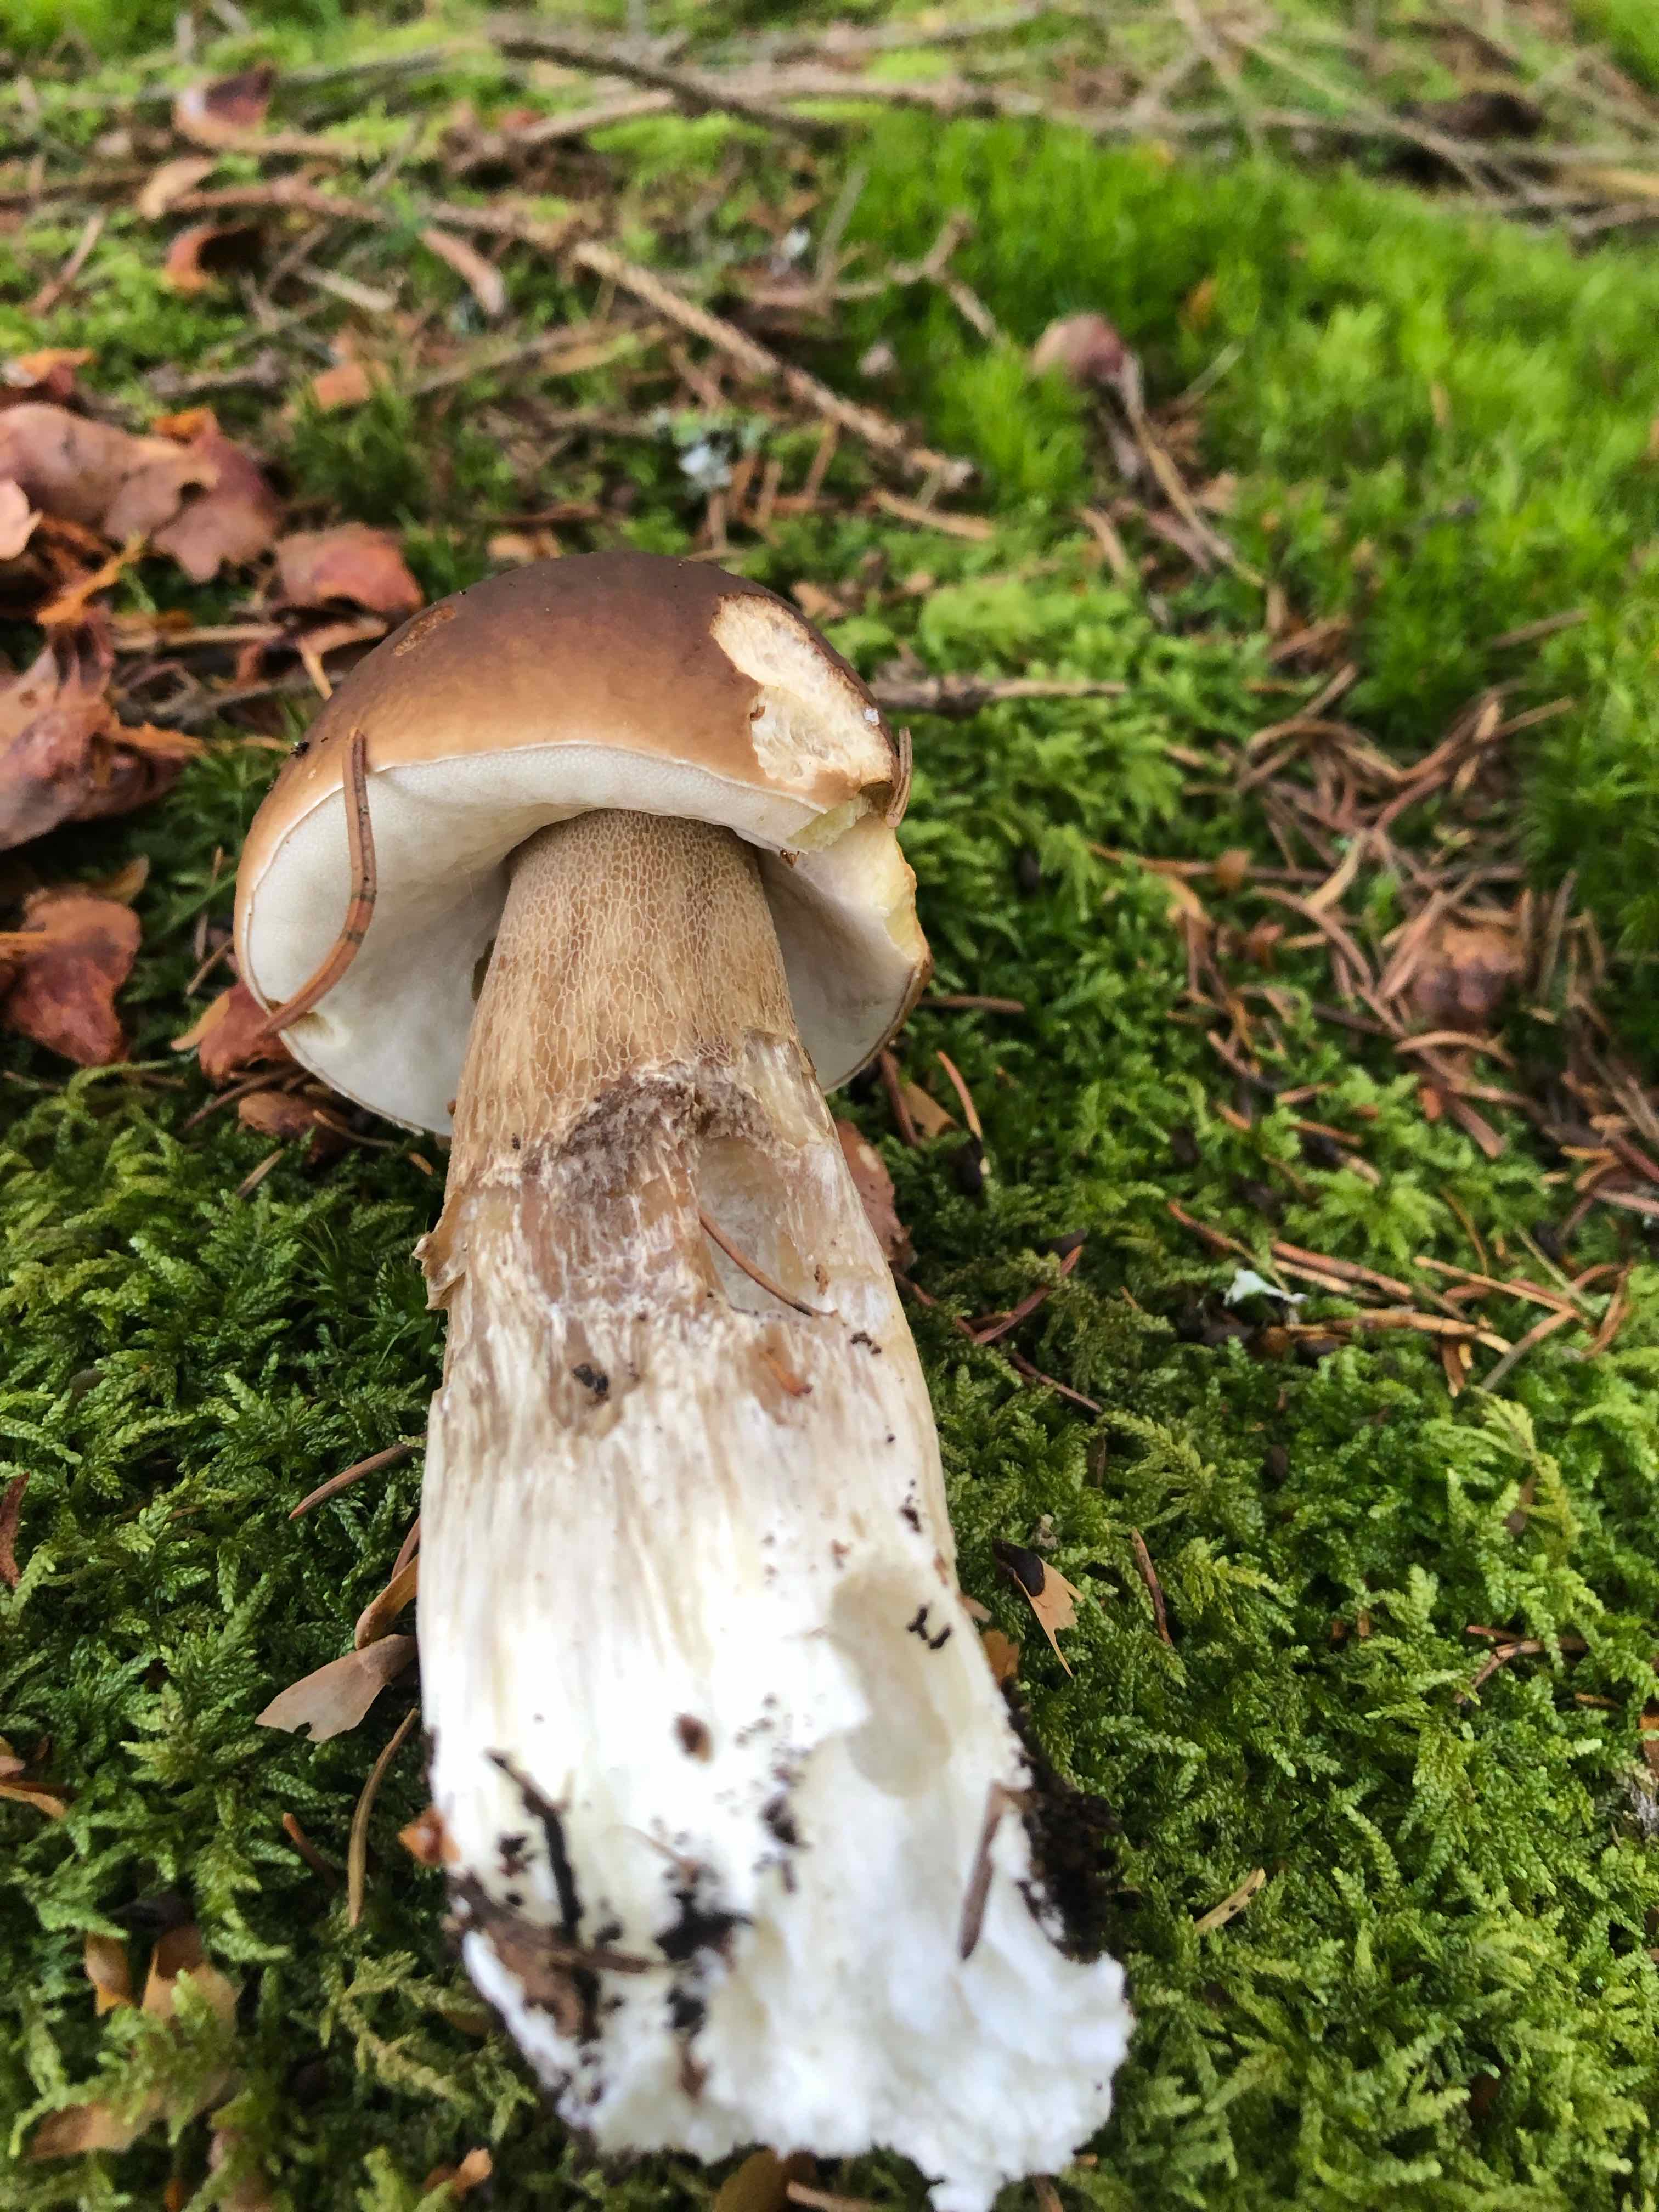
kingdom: Fungi
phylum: Basidiomycota
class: Agaricomycetes
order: Boletales
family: Boletaceae
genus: Boletus
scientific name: Boletus edulis
